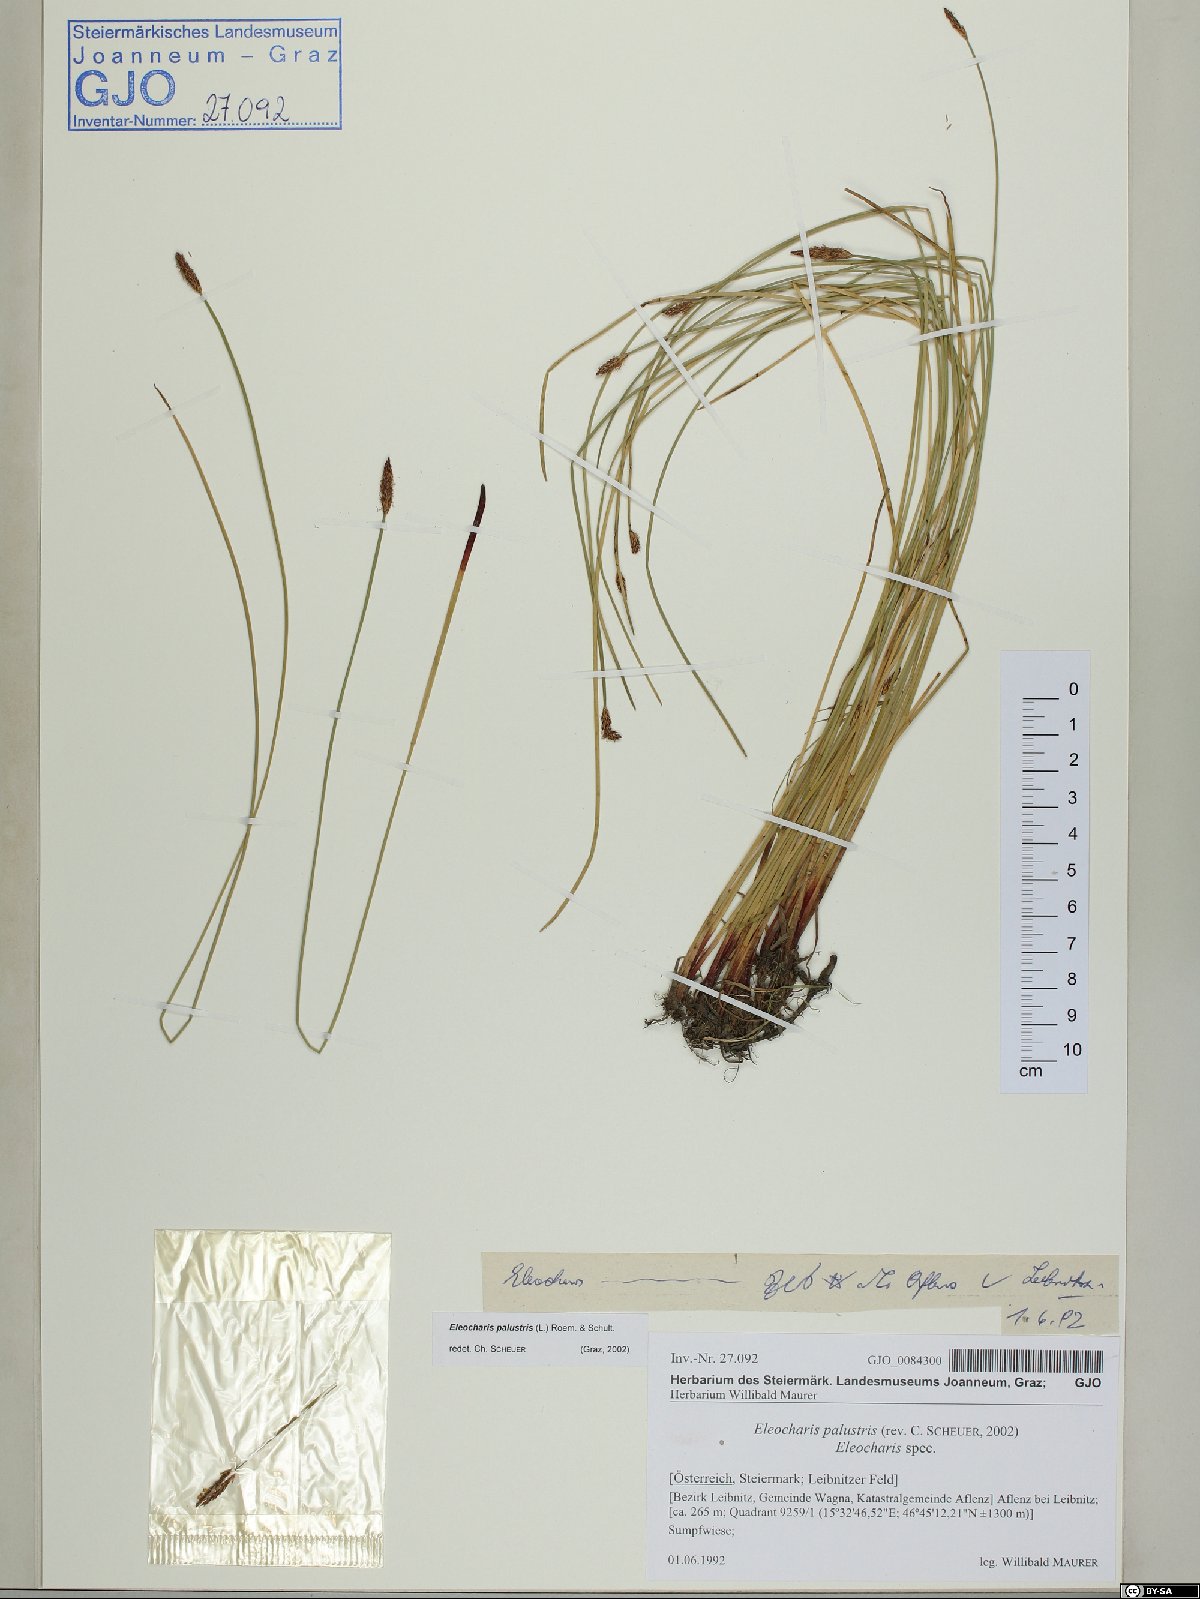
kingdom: Plantae
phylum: Tracheophyta
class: Liliopsida
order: Poales
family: Cyperaceae
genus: Eleocharis
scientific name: Eleocharis palustris
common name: Common spike-rush
